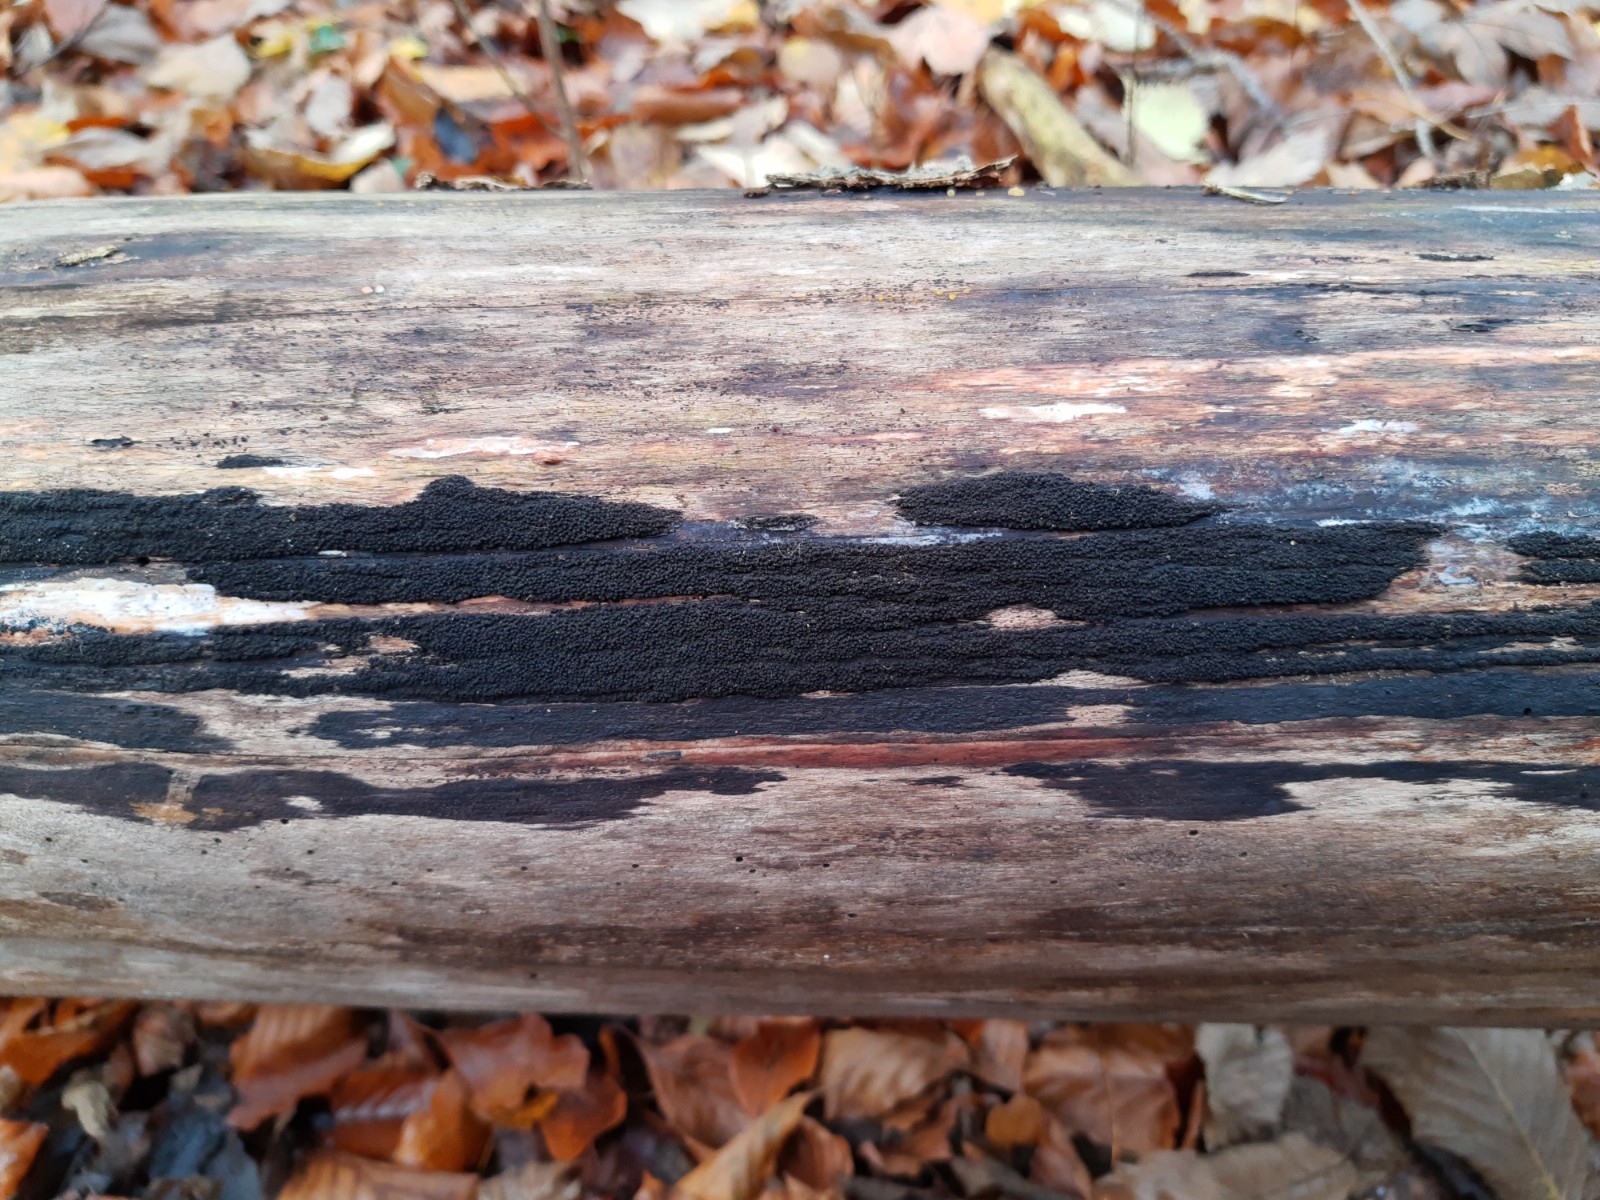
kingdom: Fungi
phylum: Ascomycota
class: Sordariomycetes
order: Xylariales
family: Diatrypaceae
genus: Eutypa
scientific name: Eutypa spinosa
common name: grov kulskorpe
